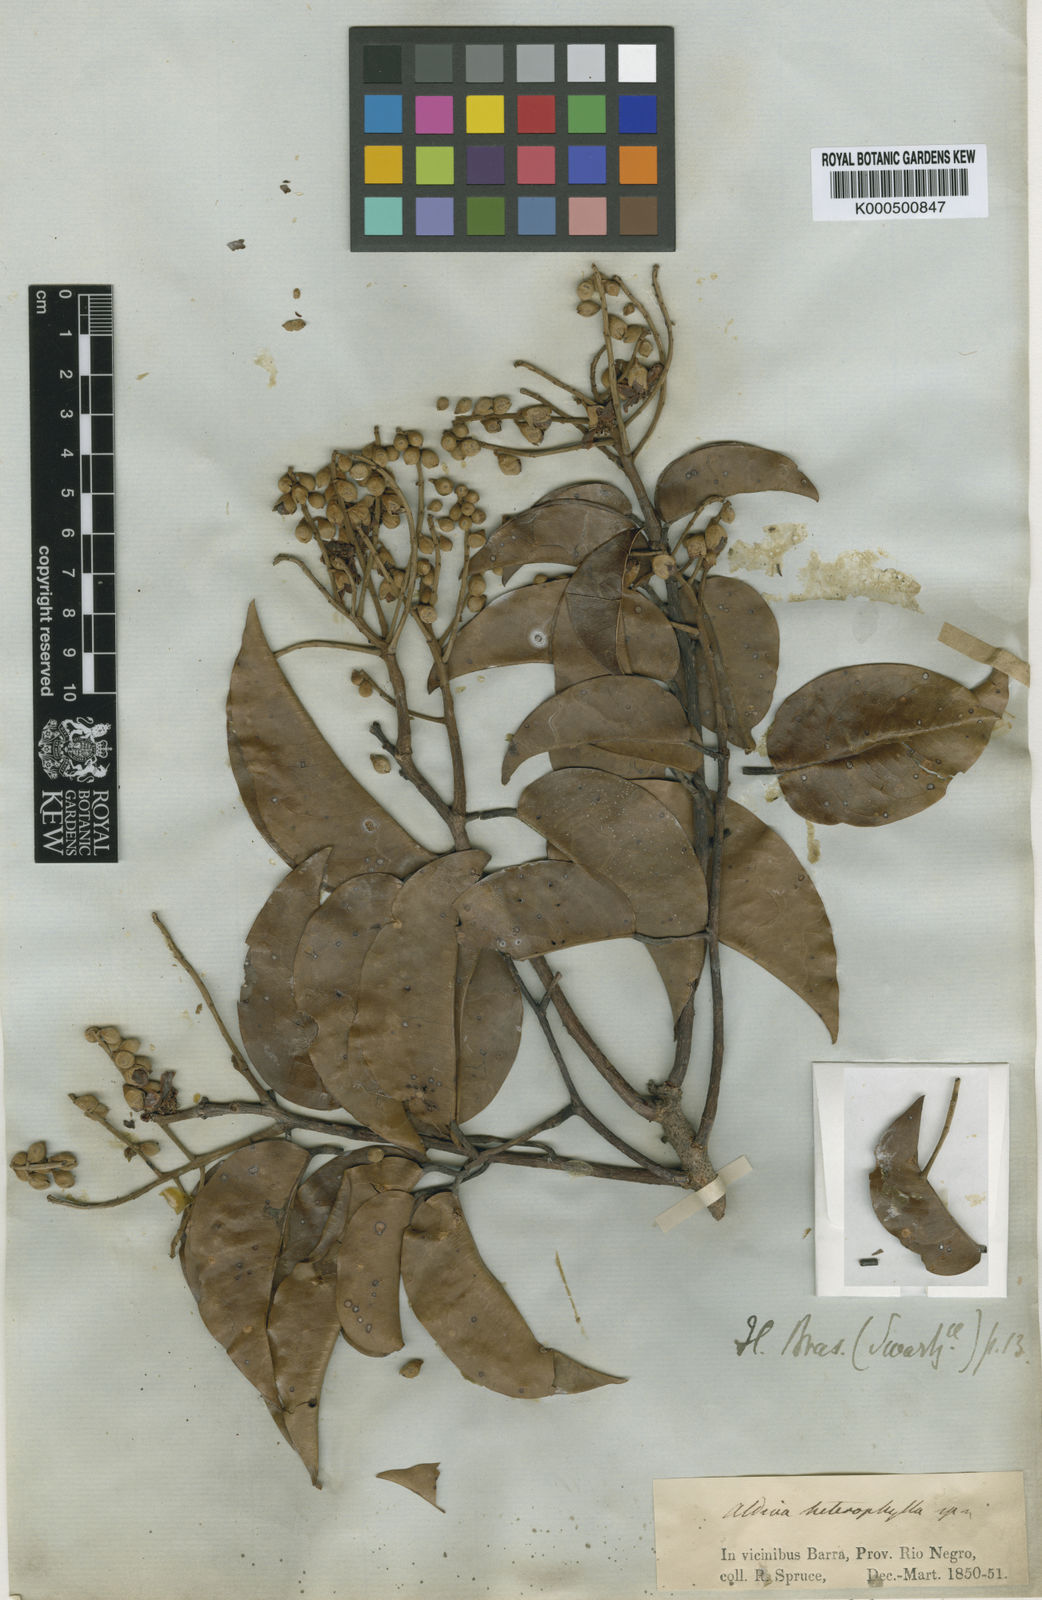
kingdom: Plantae
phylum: Tracheophyta
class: Magnoliopsida
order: Fabales
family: Fabaceae
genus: Aldina
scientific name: Aldina heterophylla
